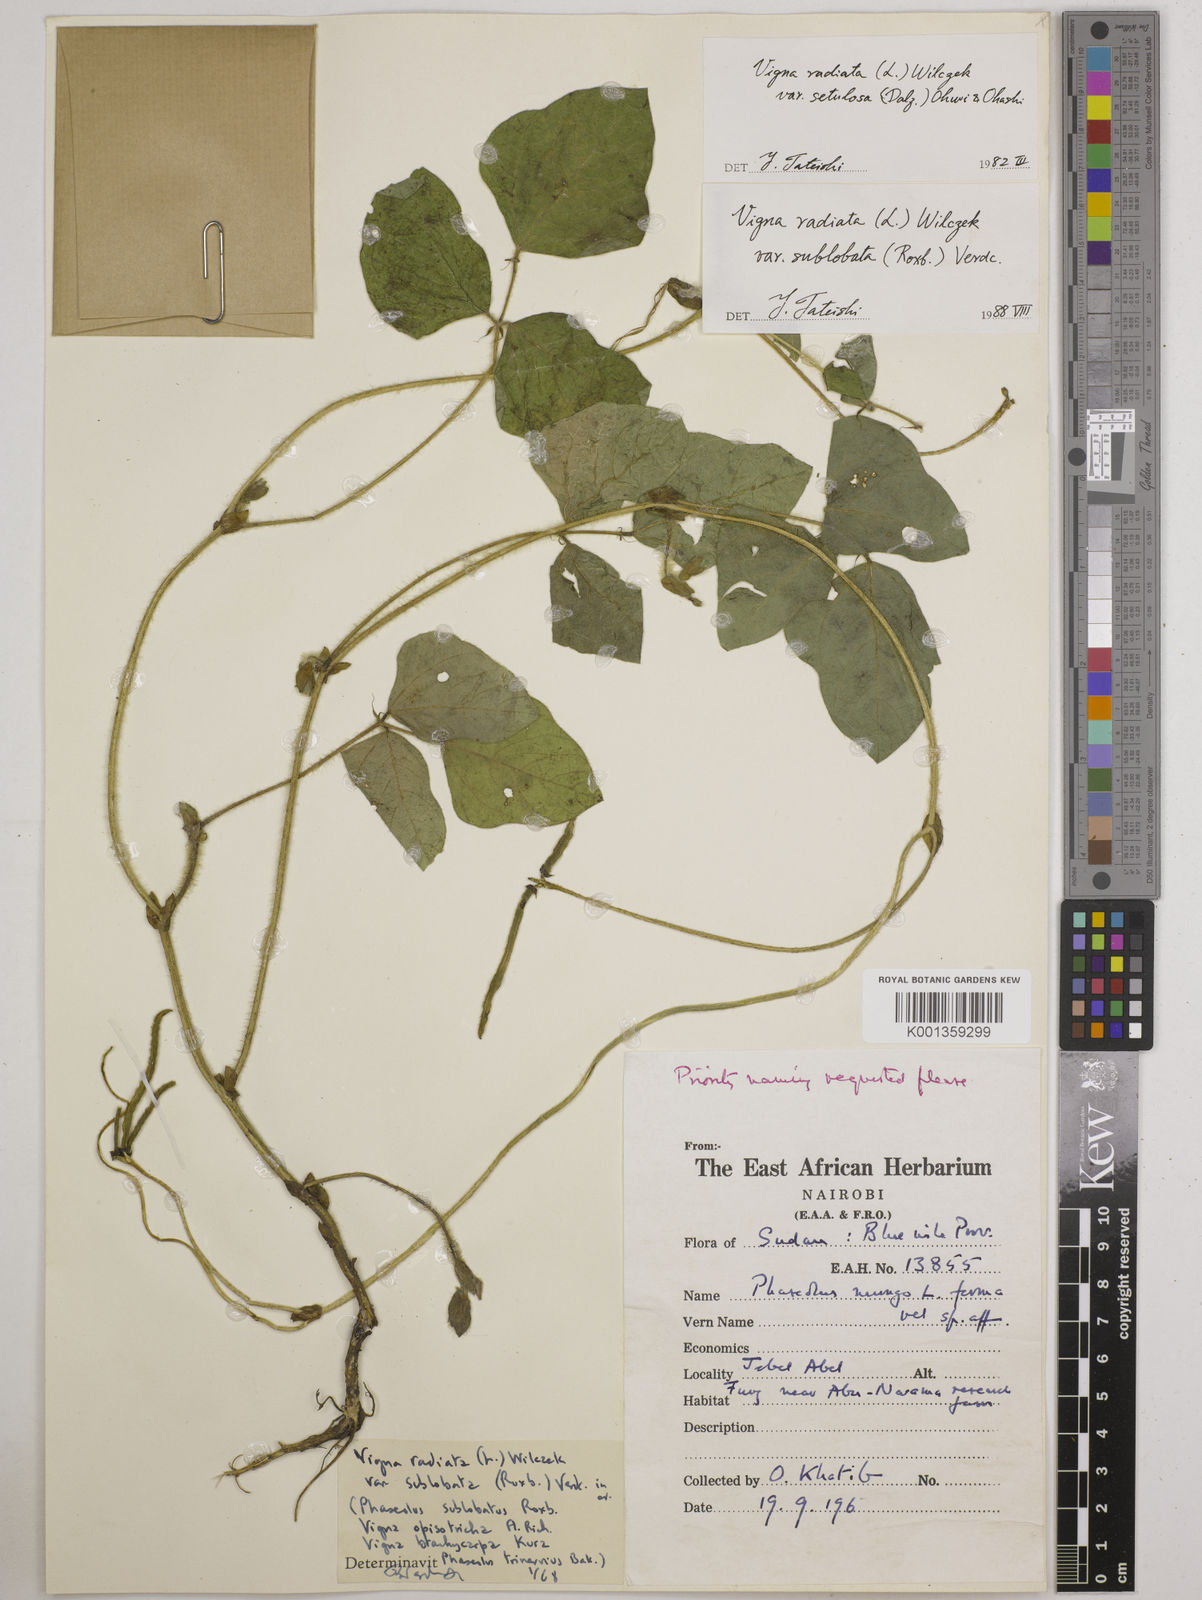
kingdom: Plantae
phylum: Tracheophyta
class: Magnoliopsida
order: Fabales
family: Fabaceae
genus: Vigna
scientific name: Vigna radiata
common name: Mung-bean
